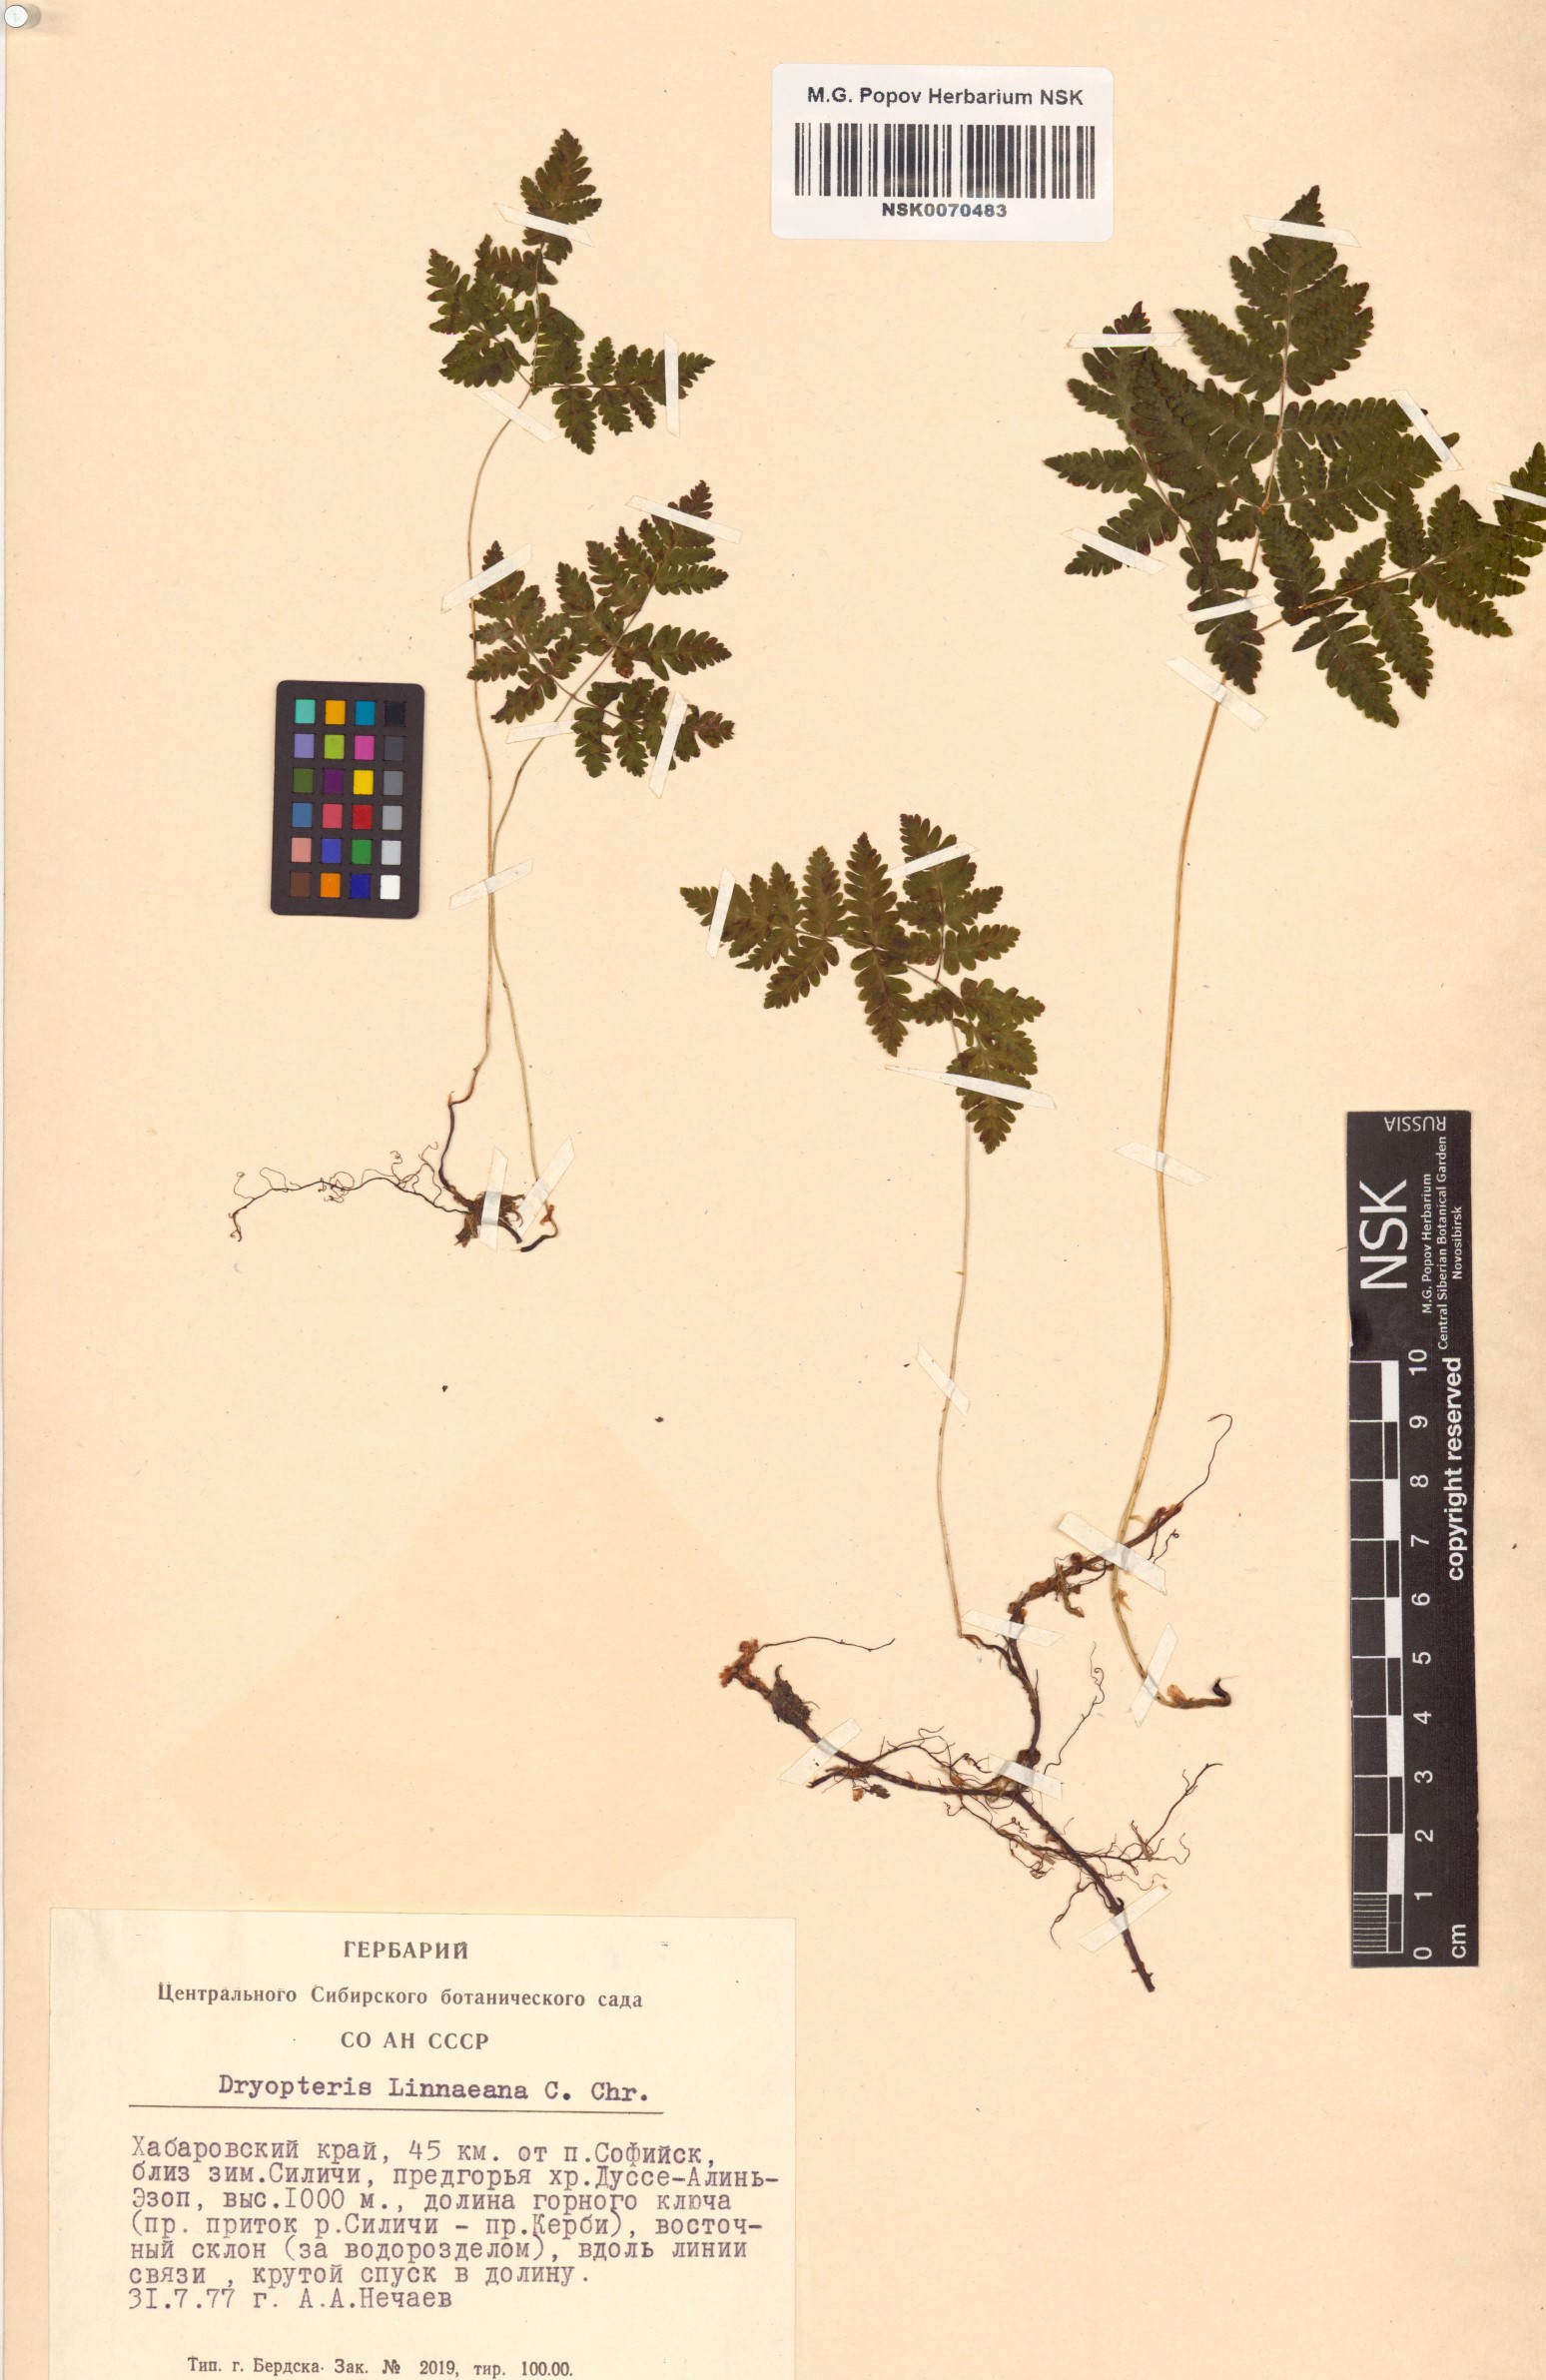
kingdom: Plantae
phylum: Tracheophyta
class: Polypodiopsida
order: Polypodiales
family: Cystopteridaceae
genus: Gymnocarpium
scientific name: Gymnocarpium dryopteris
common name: Oak fern
